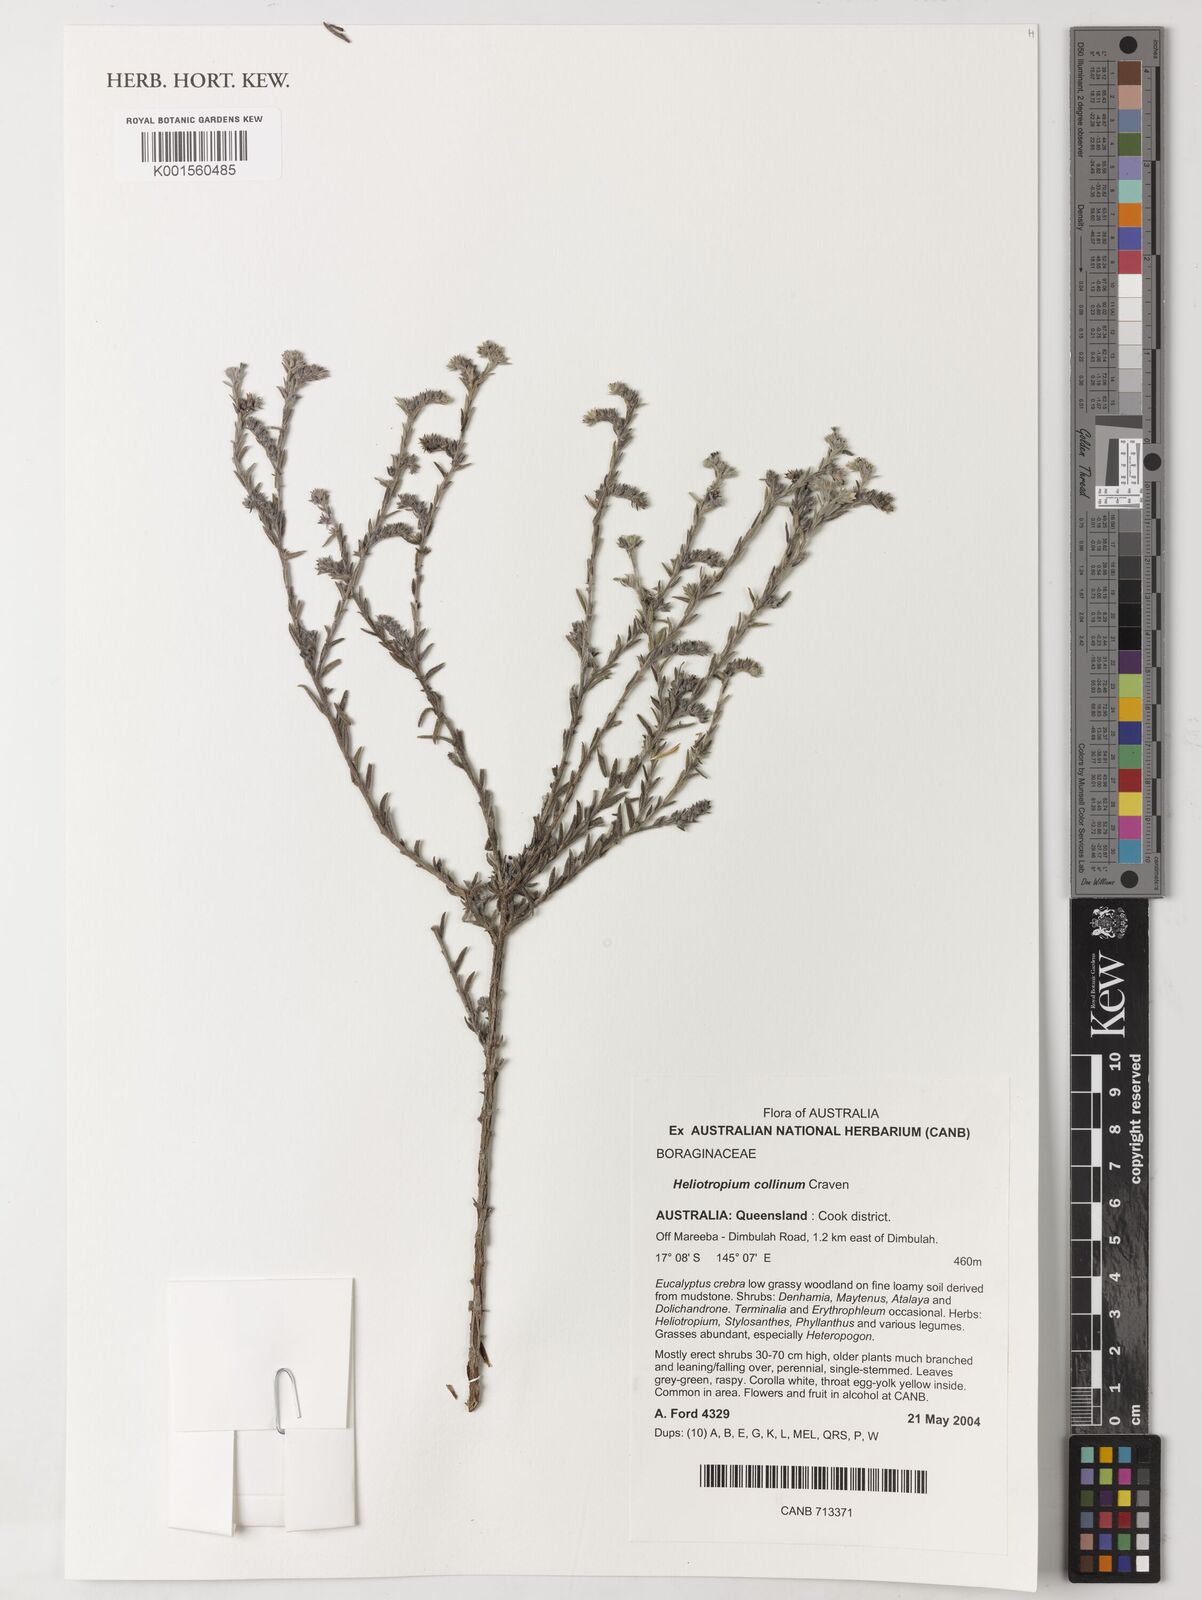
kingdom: Plantae
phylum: Tracheophyta
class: Magnoliopsida
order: Boraginales
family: Heliotropiaceae
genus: Euploca
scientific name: Euploca collina
